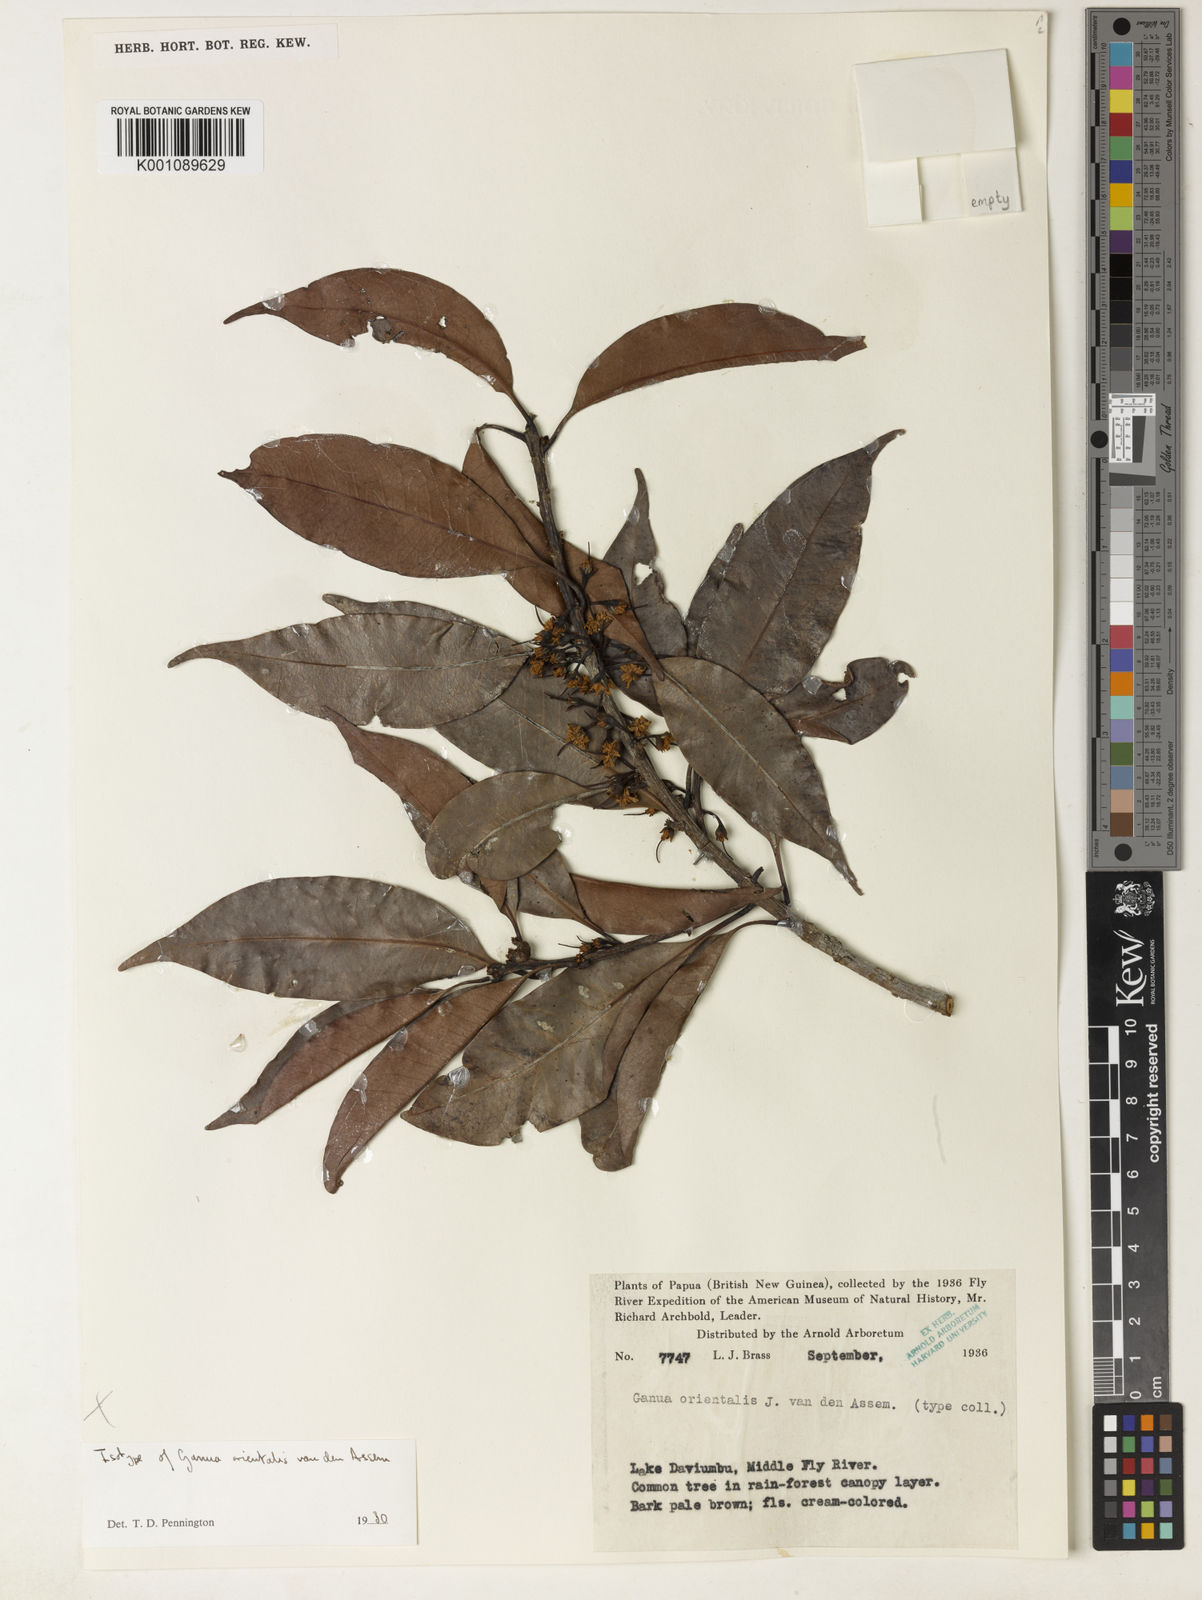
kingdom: Plantae
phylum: Tracheophyta
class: Magnoliopsida
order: Ericales
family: Sapotaceae
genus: Madhuca
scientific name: Madhuca orientalis
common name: Madhuca
